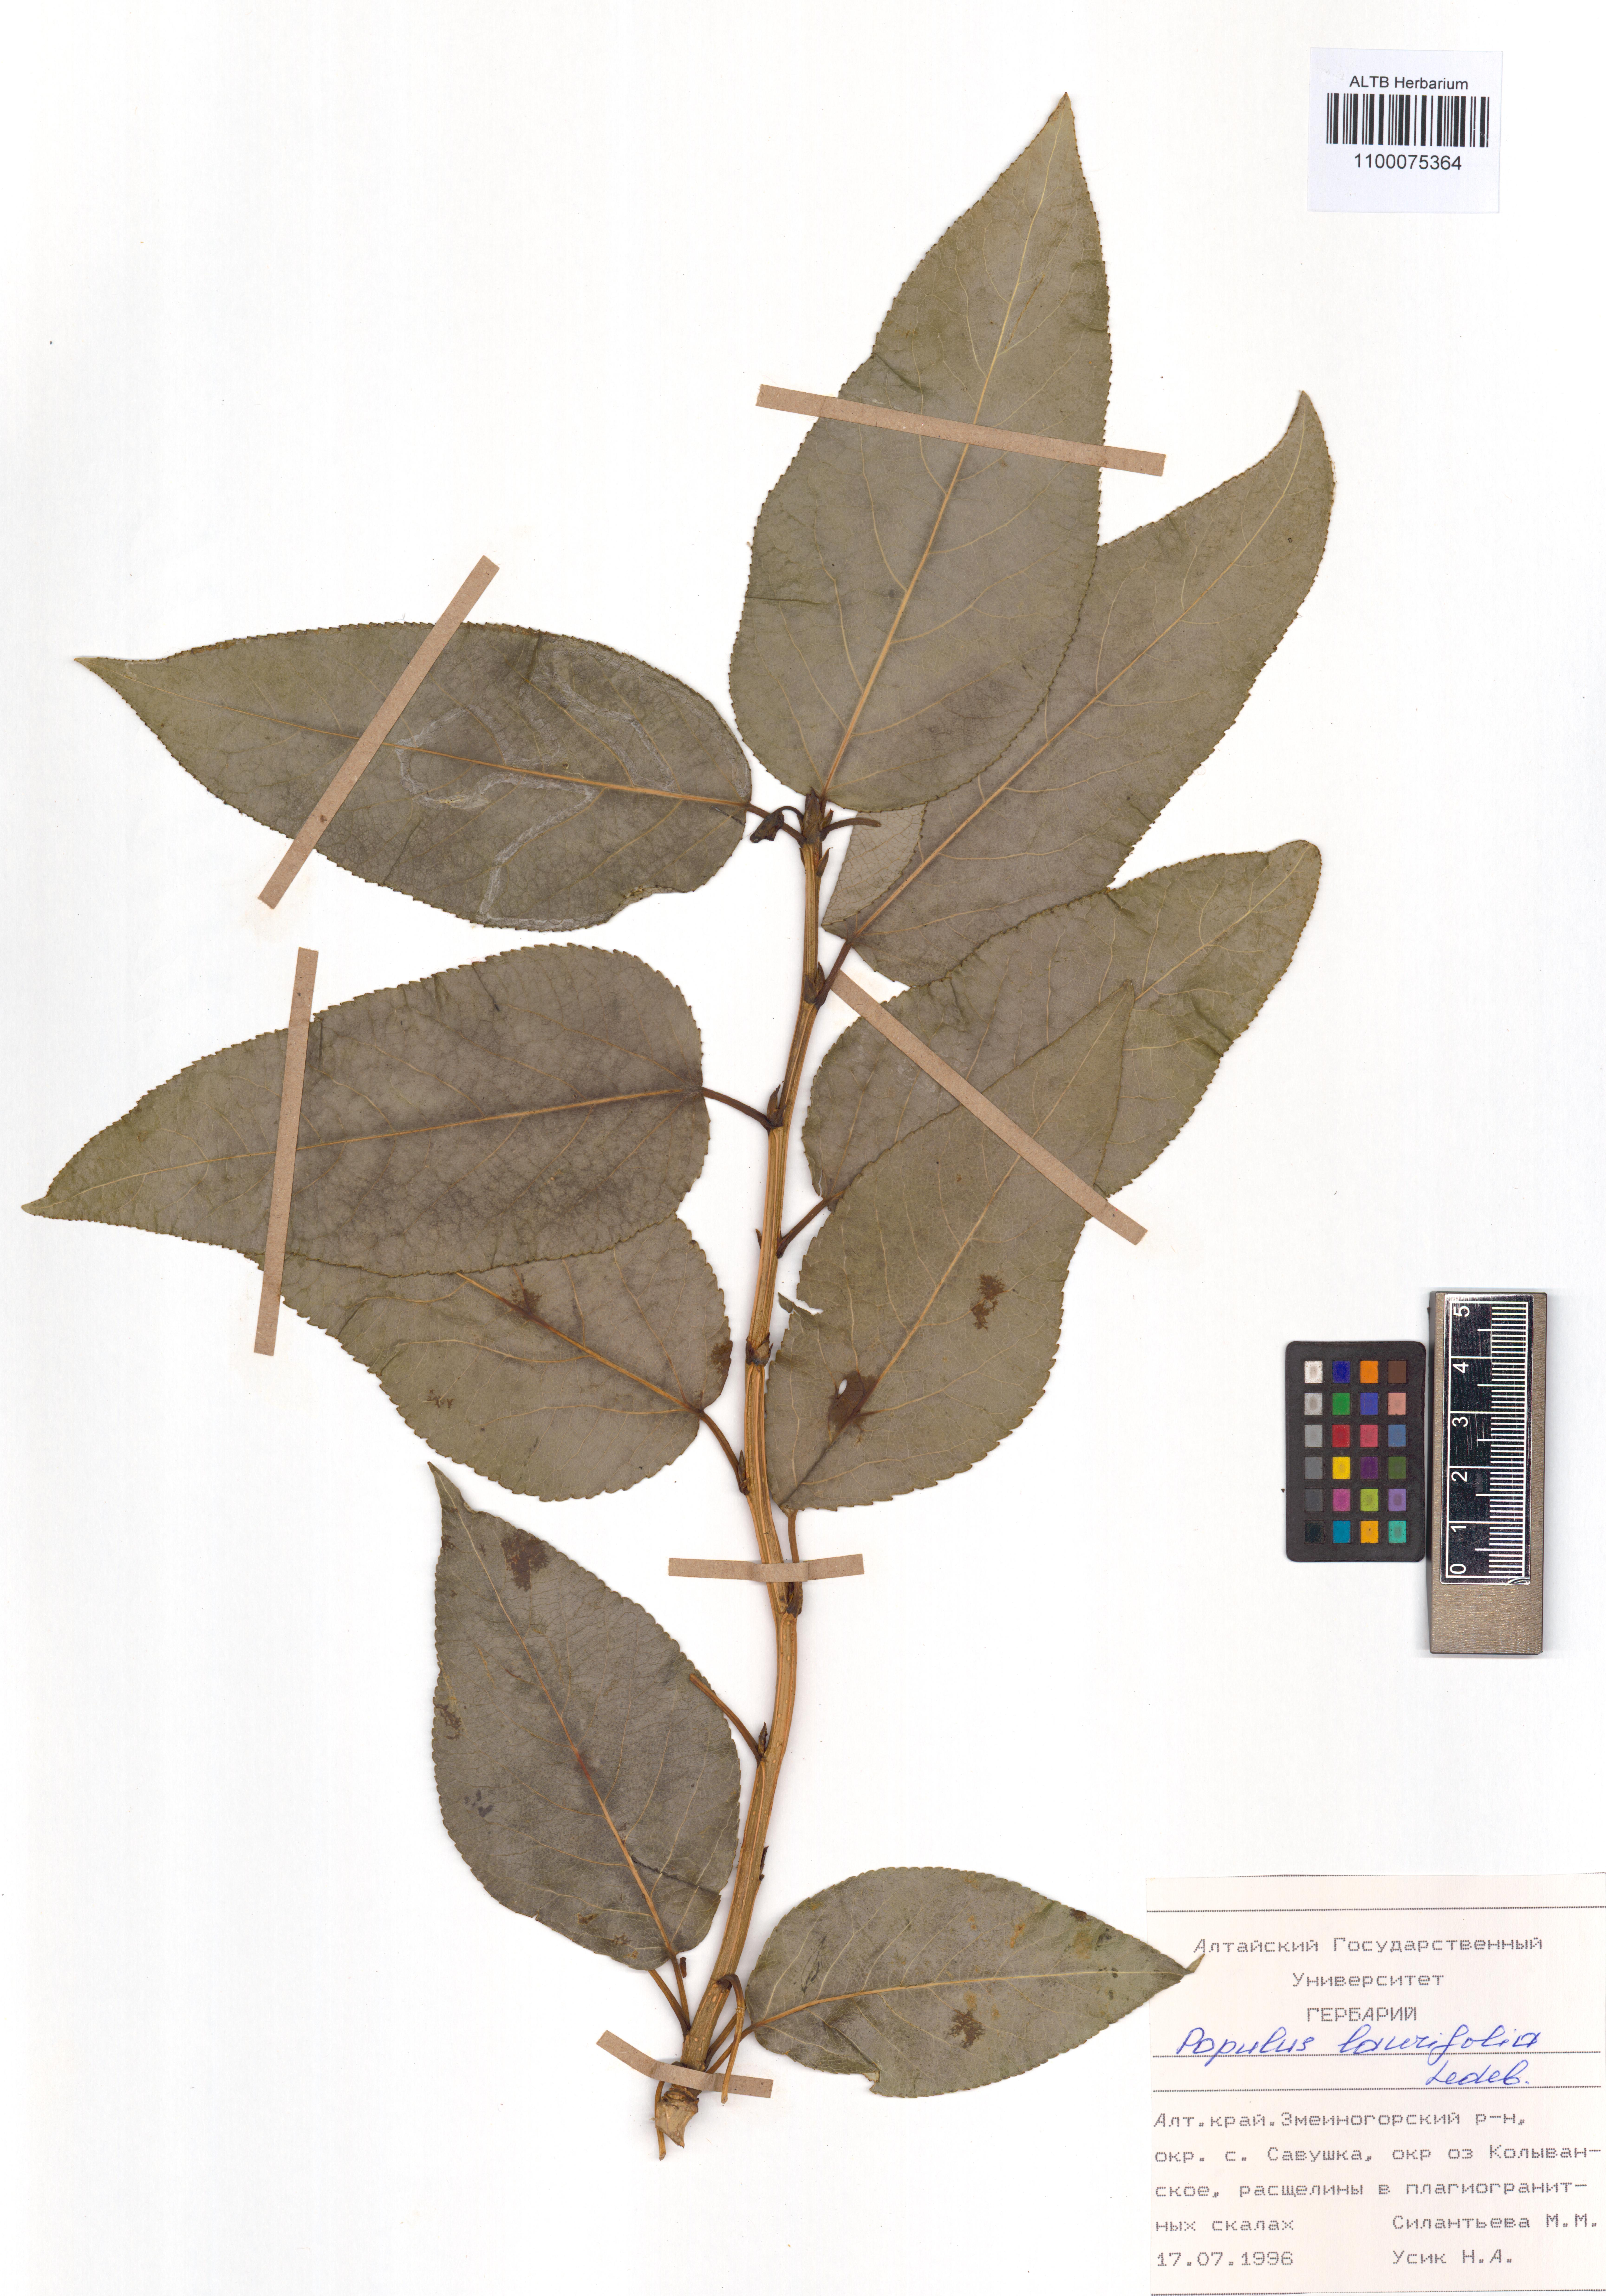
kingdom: Plantae
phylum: Tracheophyta
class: Magnoliopsida
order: Malpighiales
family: Salicaceae
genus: Populus
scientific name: Populus laurifolia
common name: Laurel-leaf poplar
